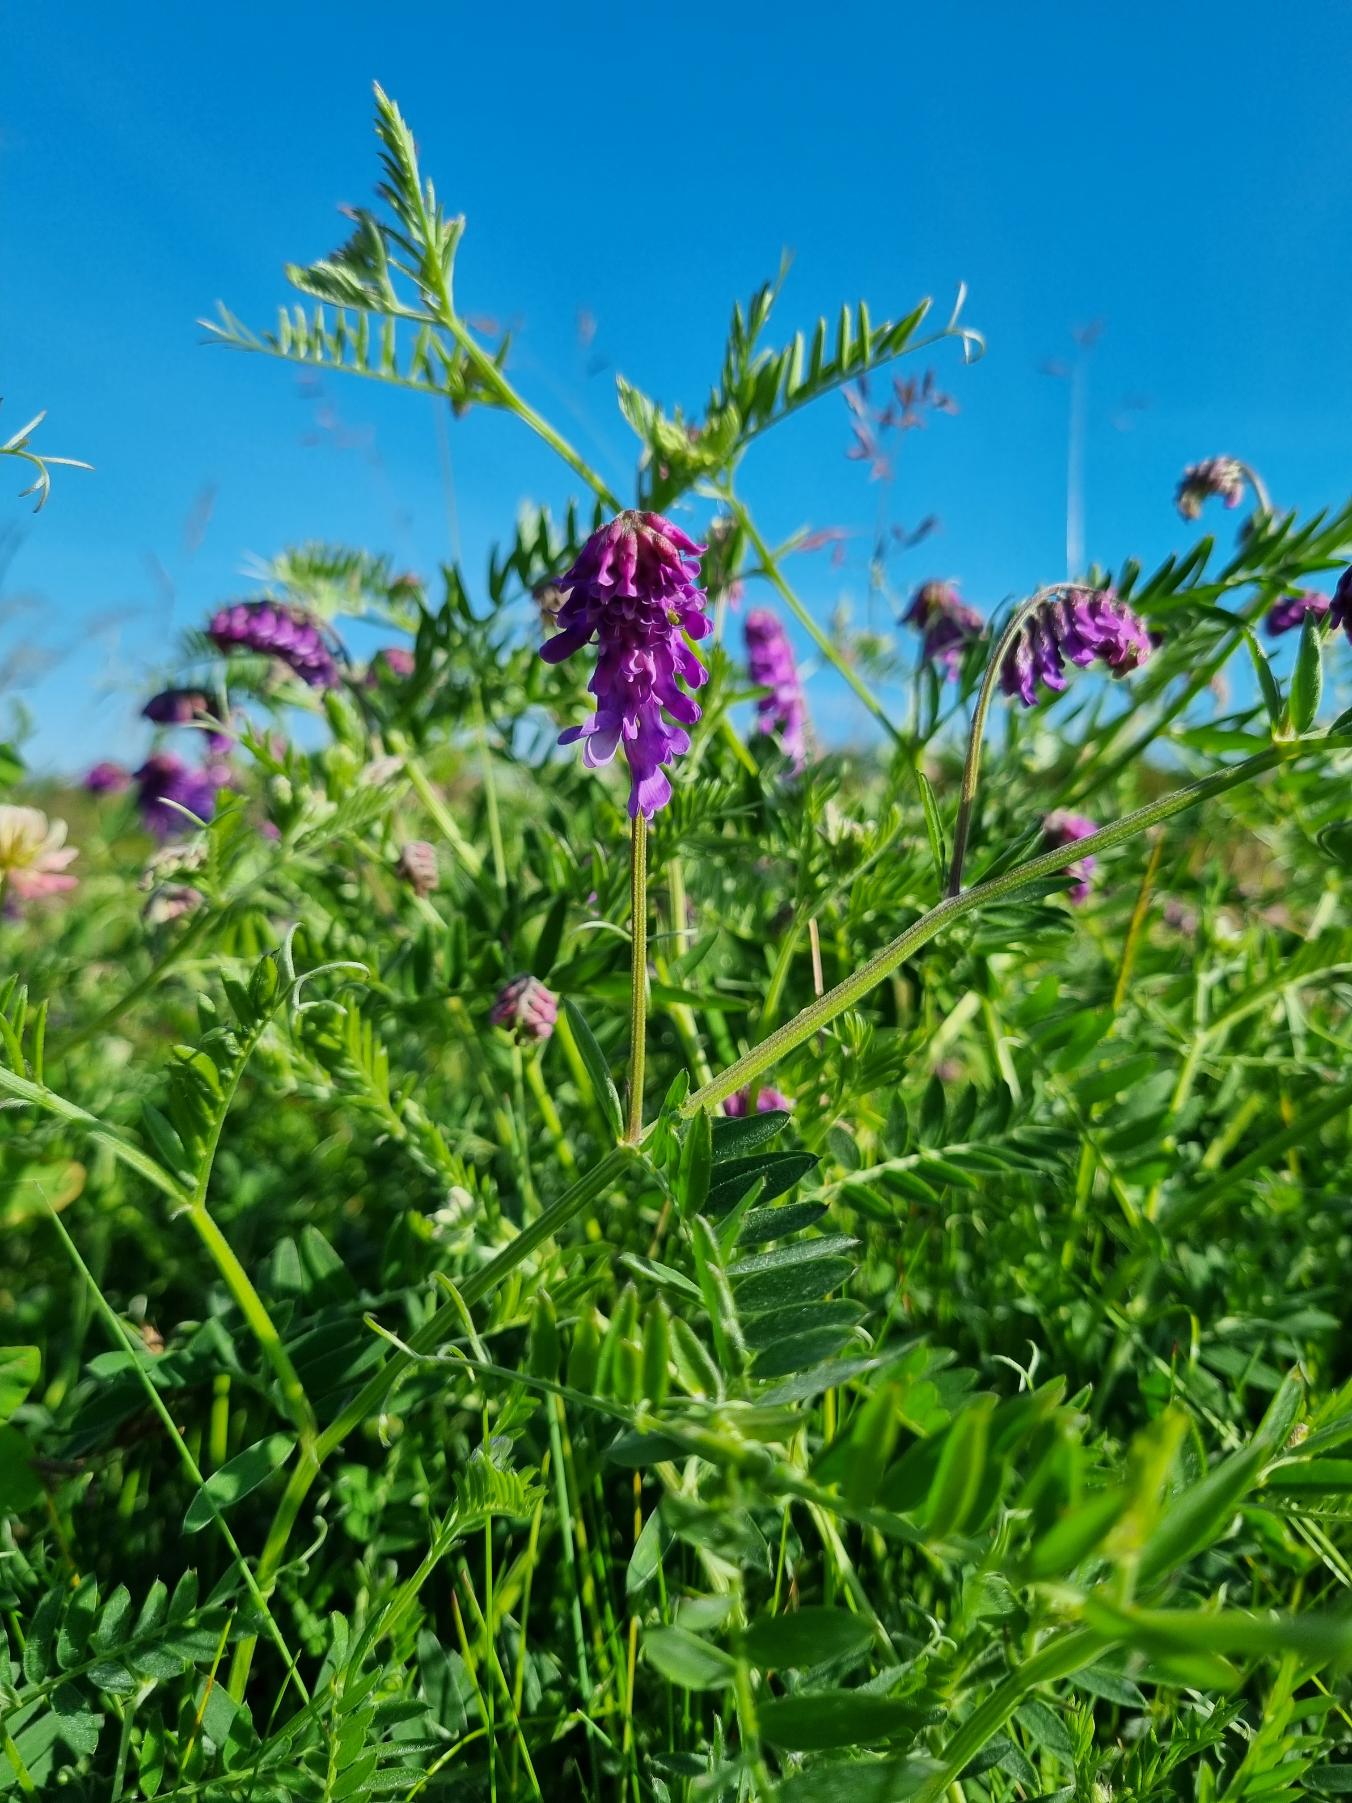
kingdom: Plantae
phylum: Tracheophyta
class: Magnoliopsida
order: Fabales
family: Fabaceae
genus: Vicia
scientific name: Vicia cracca
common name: Muse-vikke
